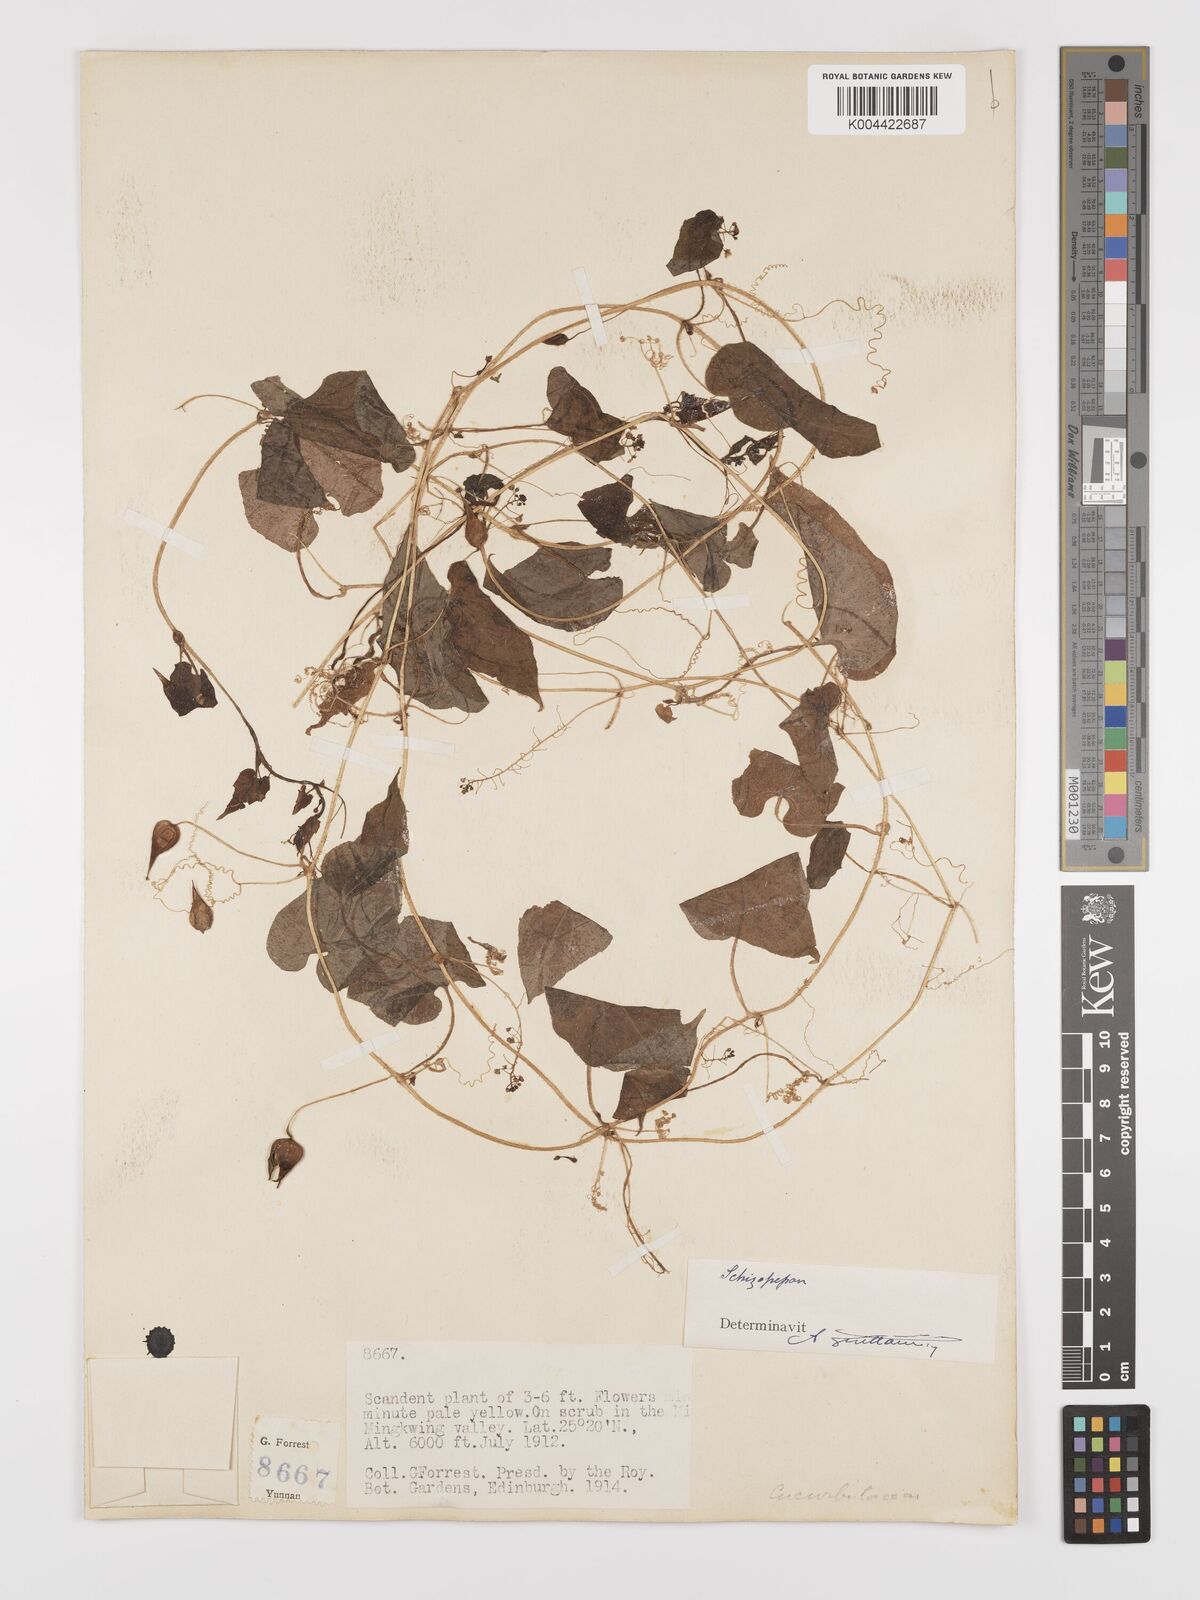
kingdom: Plantae
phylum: Tracheophyta
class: Magnoliopsida
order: Cucurbitales
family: Cucurbitaceae
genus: Schizopepon
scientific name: Schizopepon longipes
